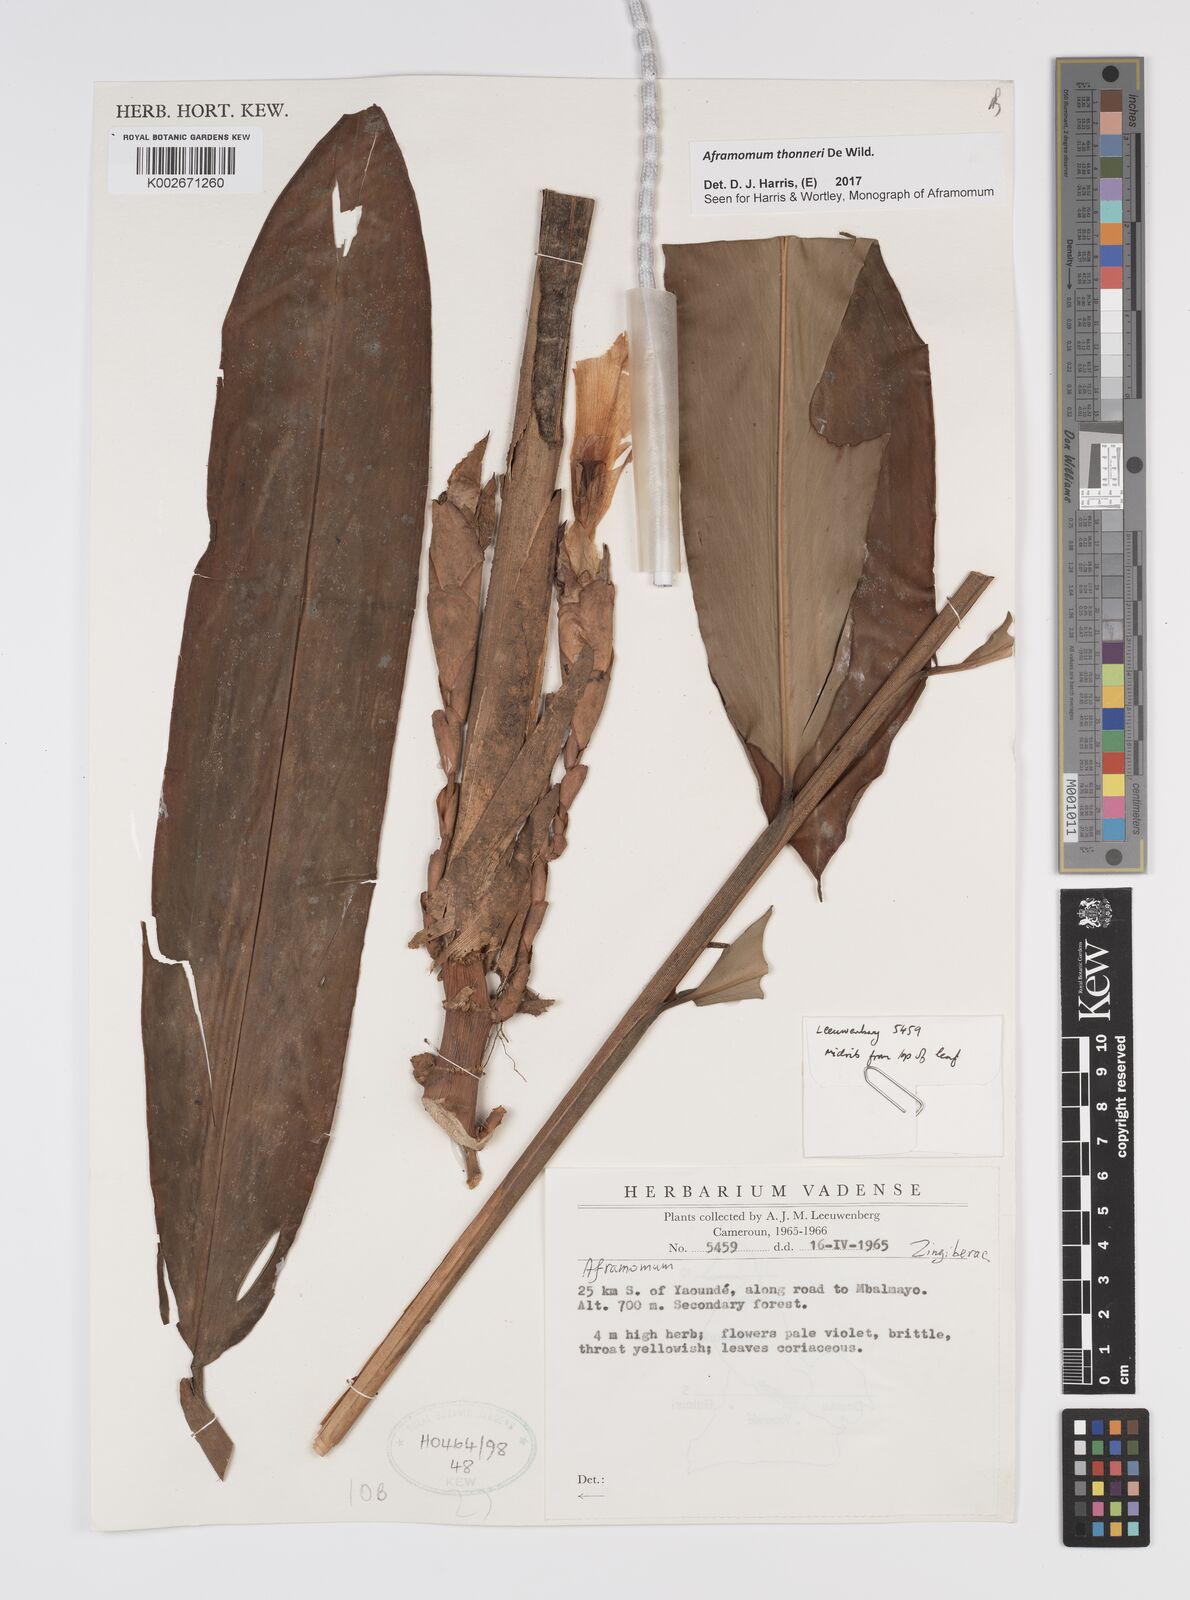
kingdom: Plantae
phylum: Tracheophyta
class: Liliopsida
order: Zingiberales
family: Zingiberaceae
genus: Aframomum
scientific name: Aframomum thonneri
